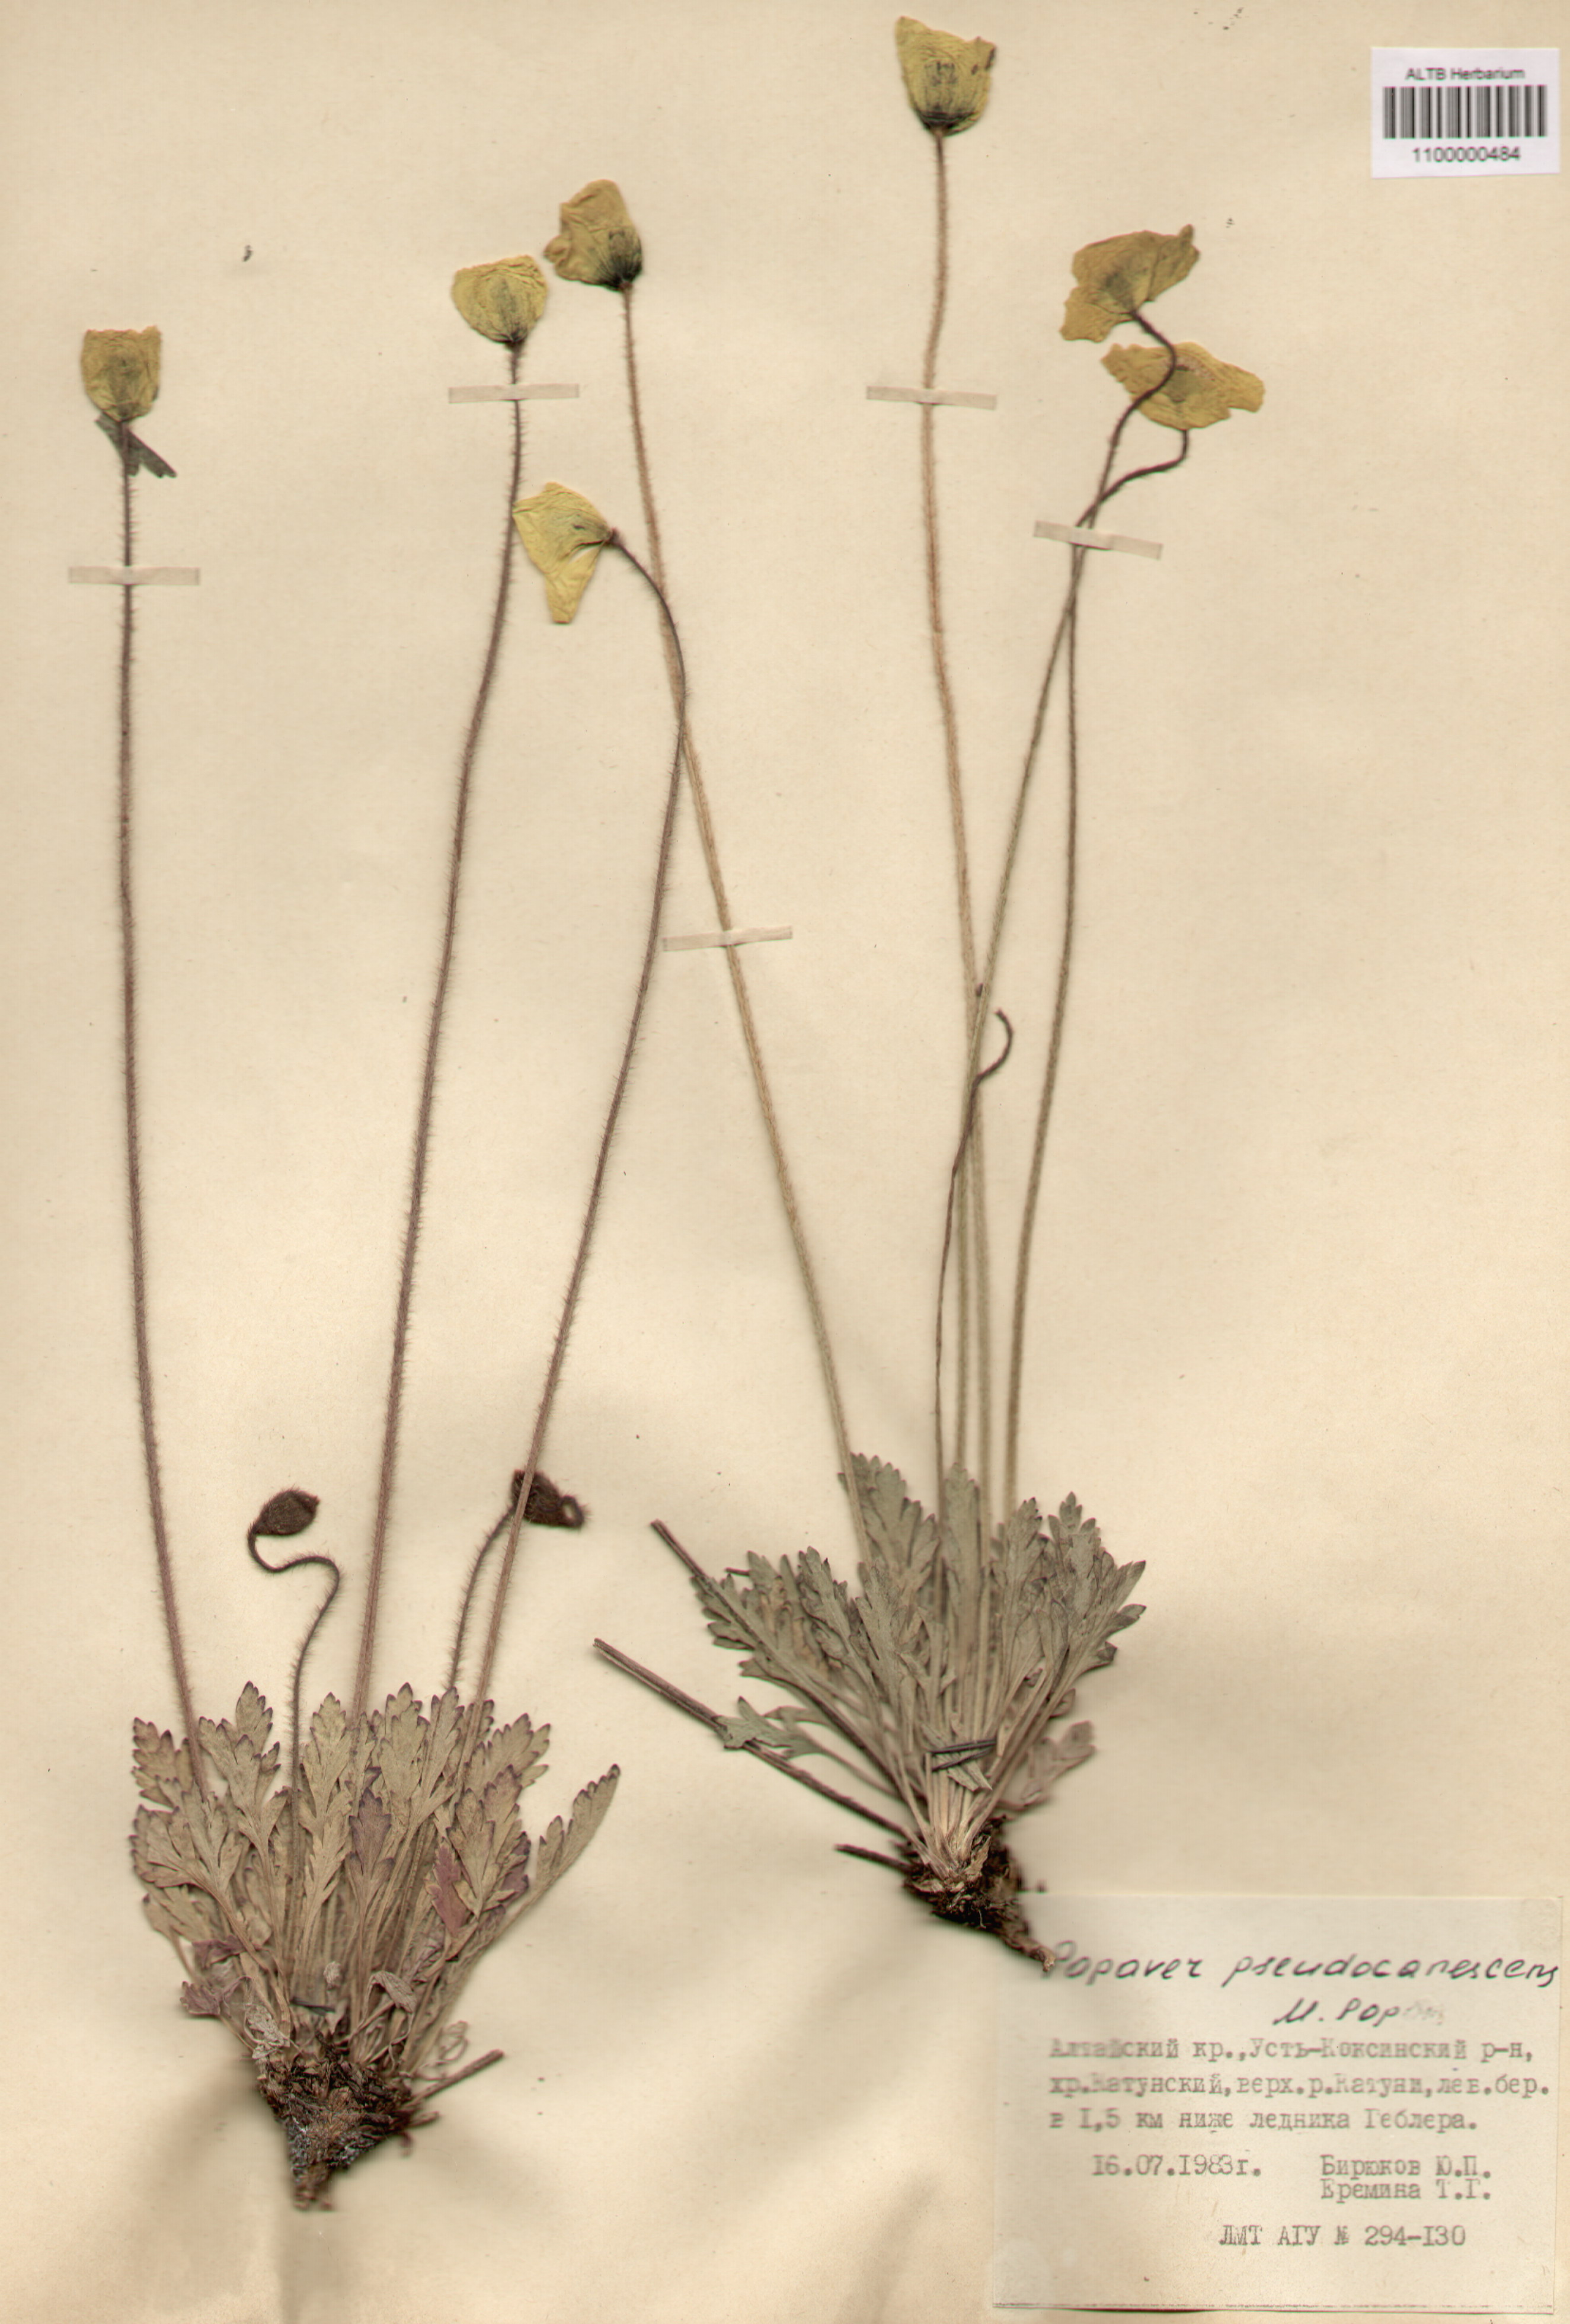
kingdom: Plantae
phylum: Tracheophyta
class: Magnoliopsida
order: Ranunculales
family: Papaveraceae
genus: Papaver
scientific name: Papaver canescens
